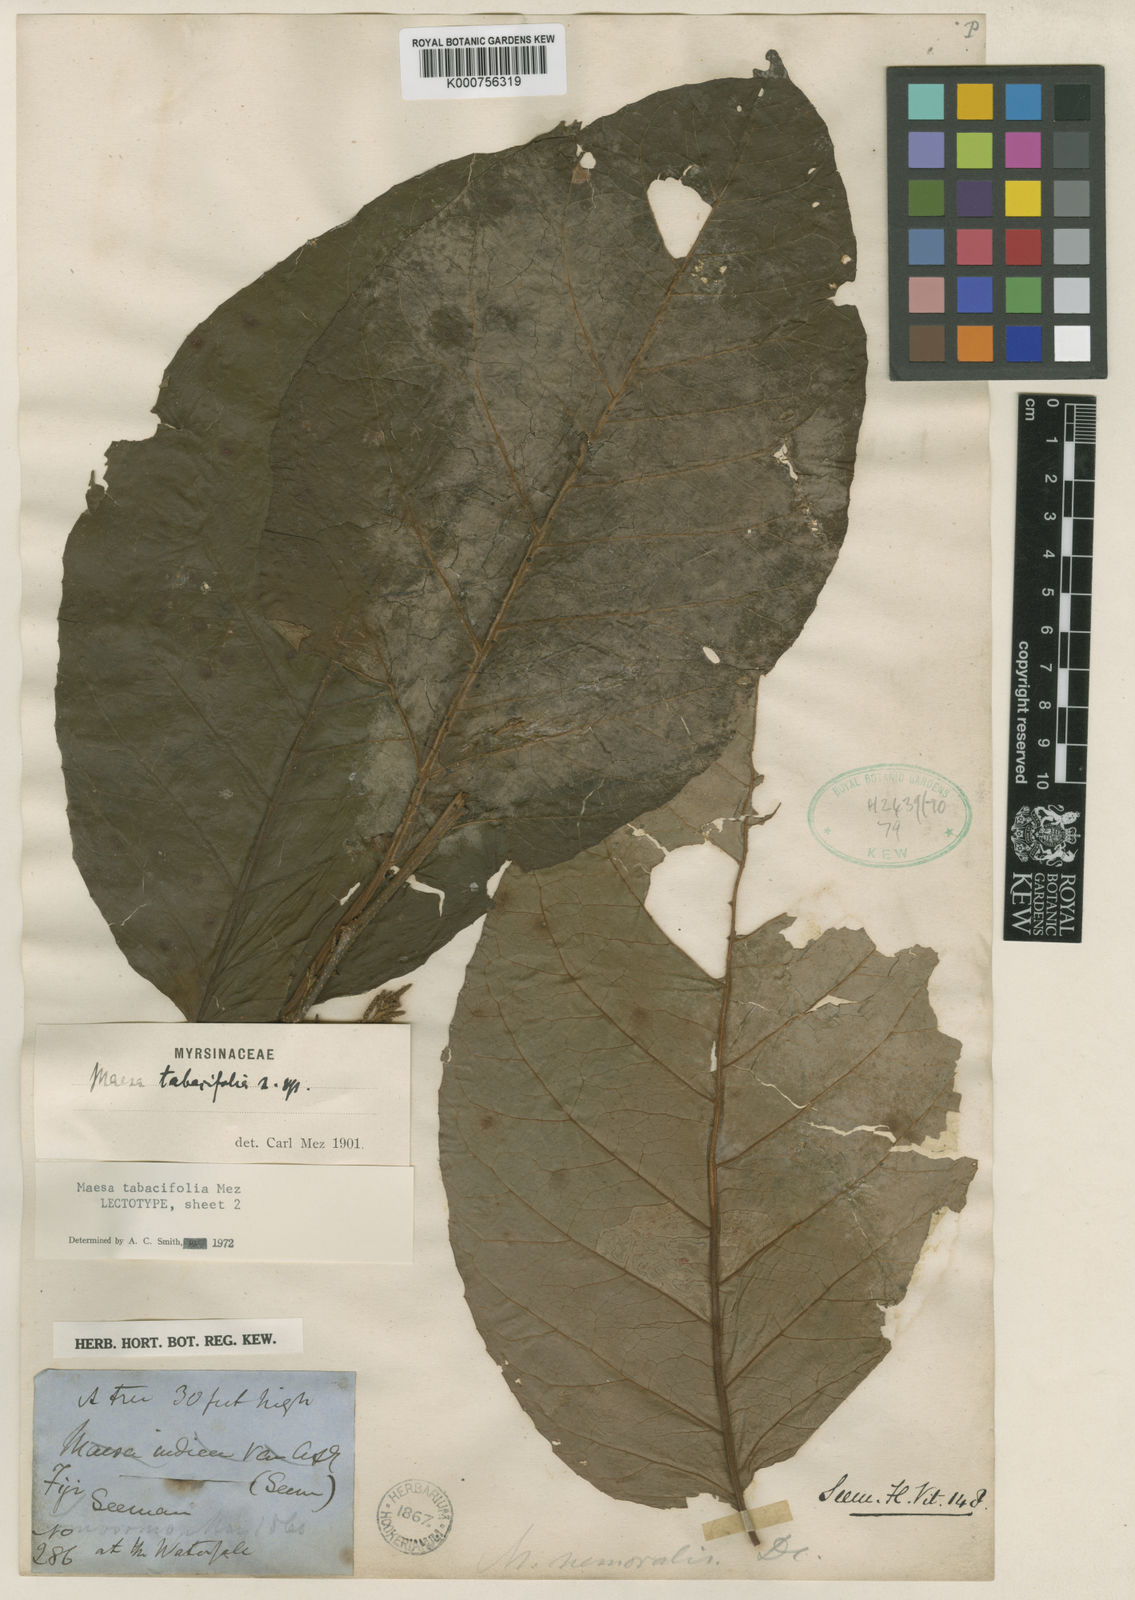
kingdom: Plantae
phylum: Tracheophyta
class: Magnoliopsida
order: Ericales
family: Primulaceae
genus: Maesa
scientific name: Maesa tabacifolia
